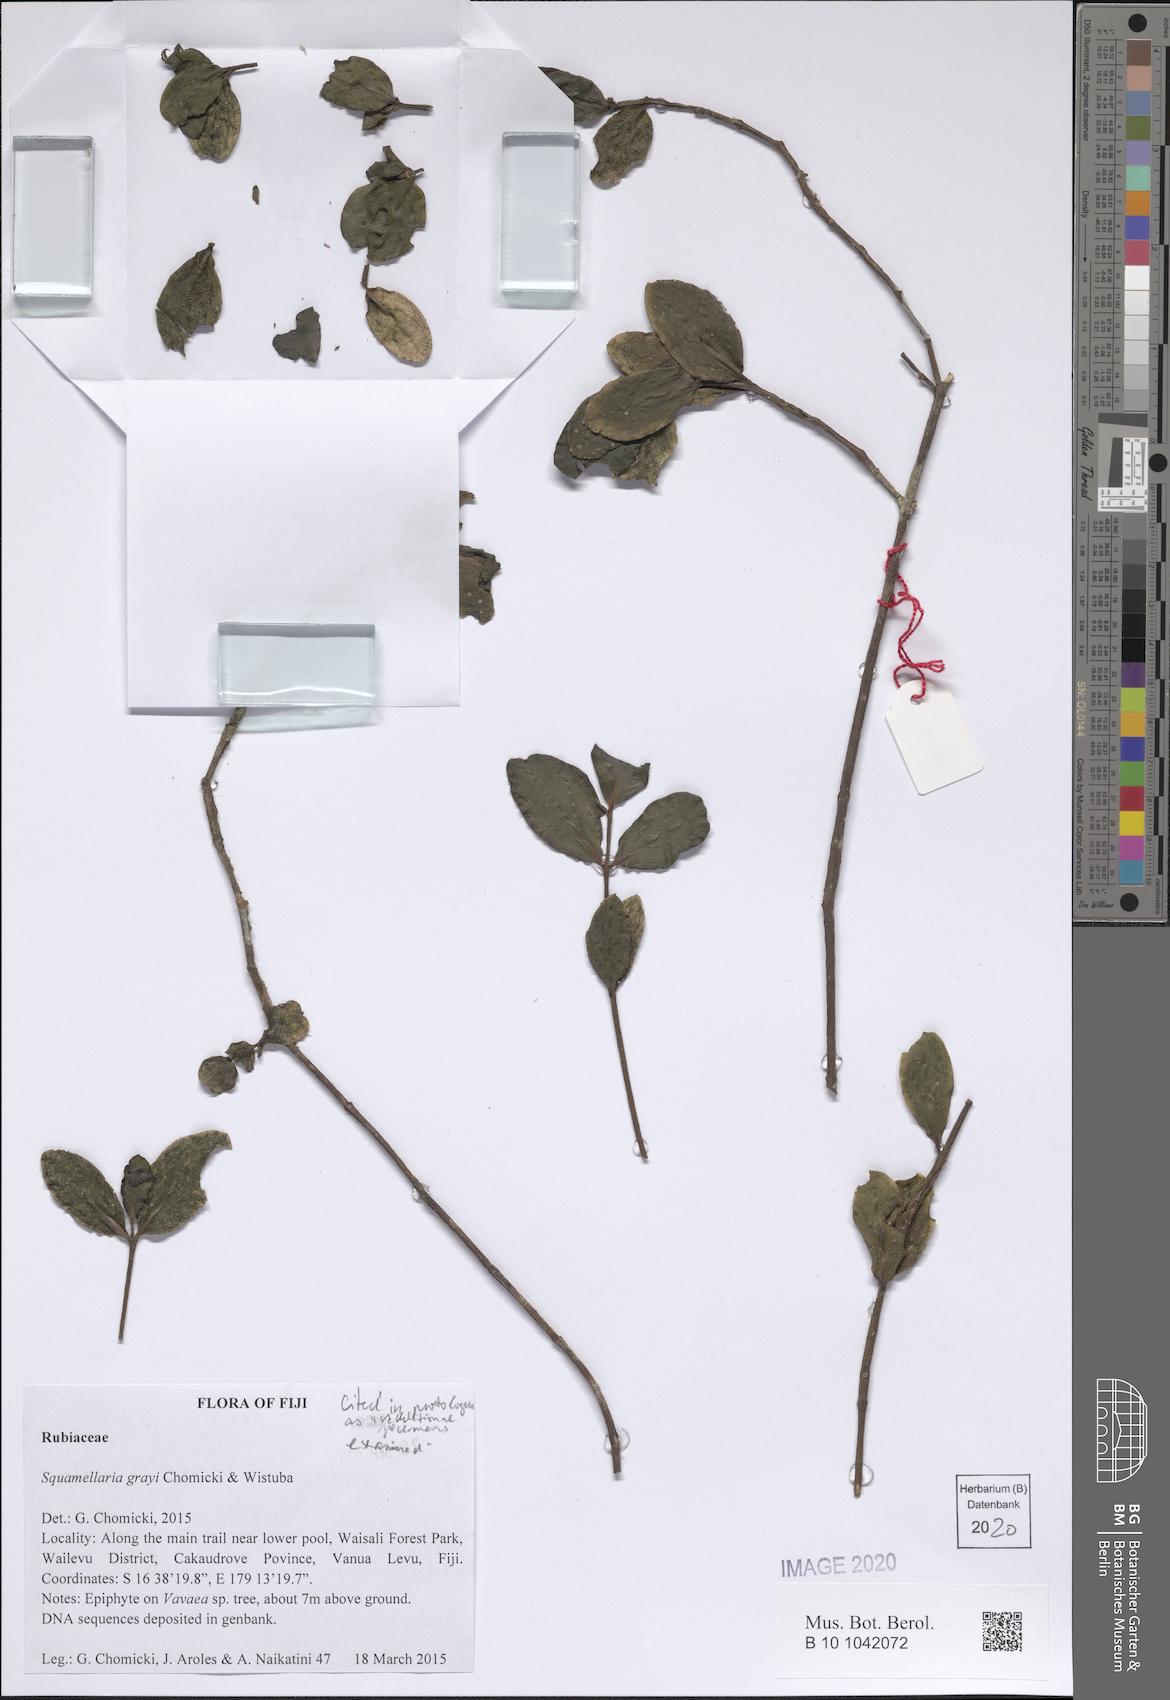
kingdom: Plantae
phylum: Tracheophyta
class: Magnoliopsida
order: Gentianales
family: Rubiaceae
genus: Squamellaria
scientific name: Squamellaria grayi
